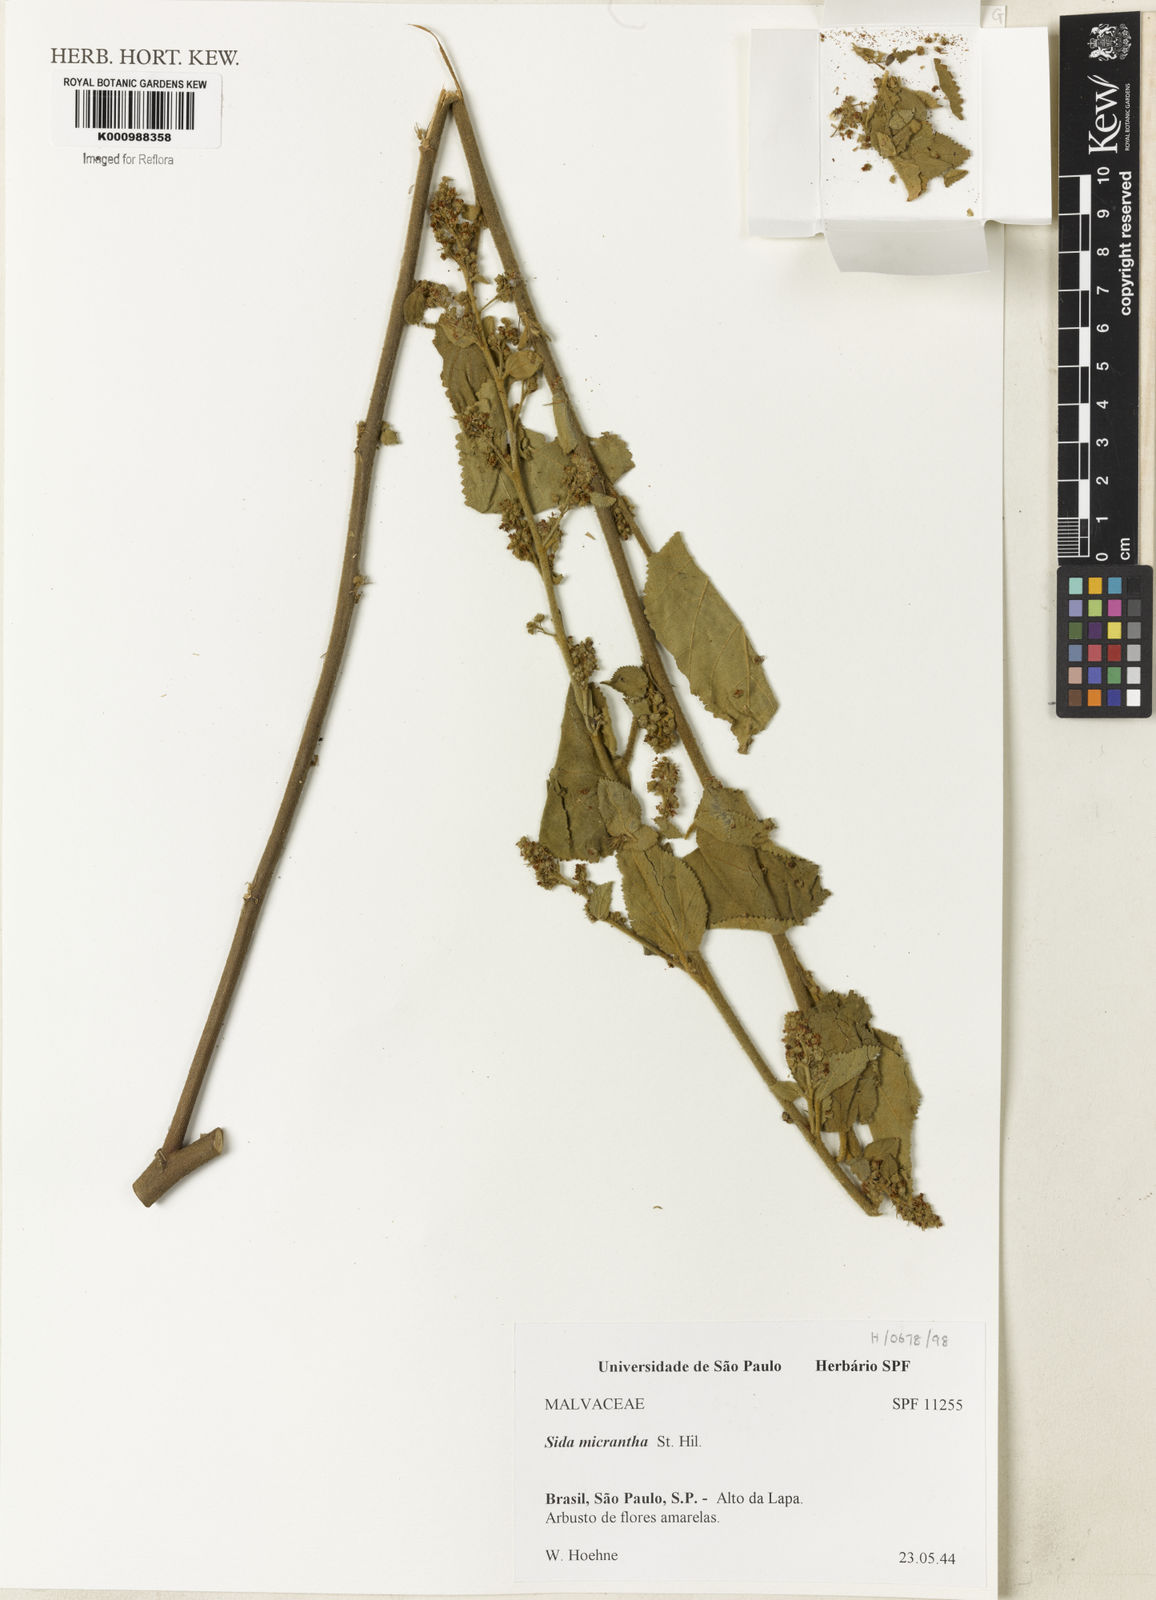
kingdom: Plantae
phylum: Tracheophyta
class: Magnoliopsida
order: Malvales
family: Malvaceae
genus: Sidastrum
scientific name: Sidastrum micranthum
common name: Dainty sandmallow
